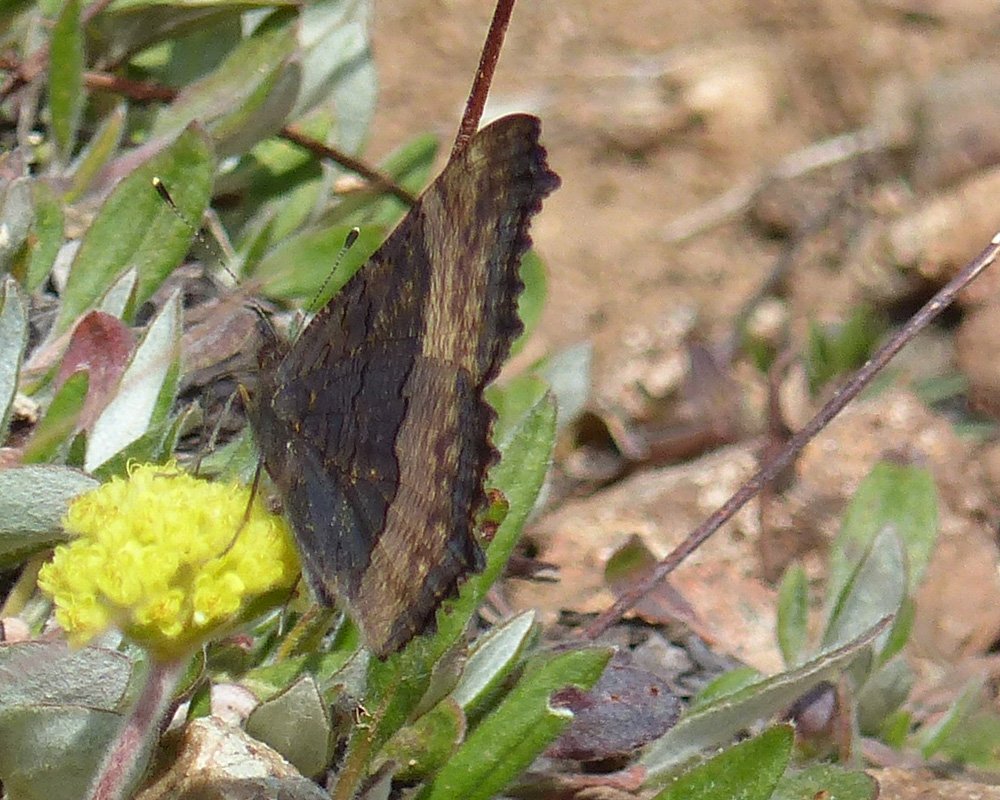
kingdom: Animalia
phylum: Arthropoda
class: Insecta
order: Lepidoptera
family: Nymphalidae
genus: Aglais
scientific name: Aglais milberti
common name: Milbert's Tortoiseshell
